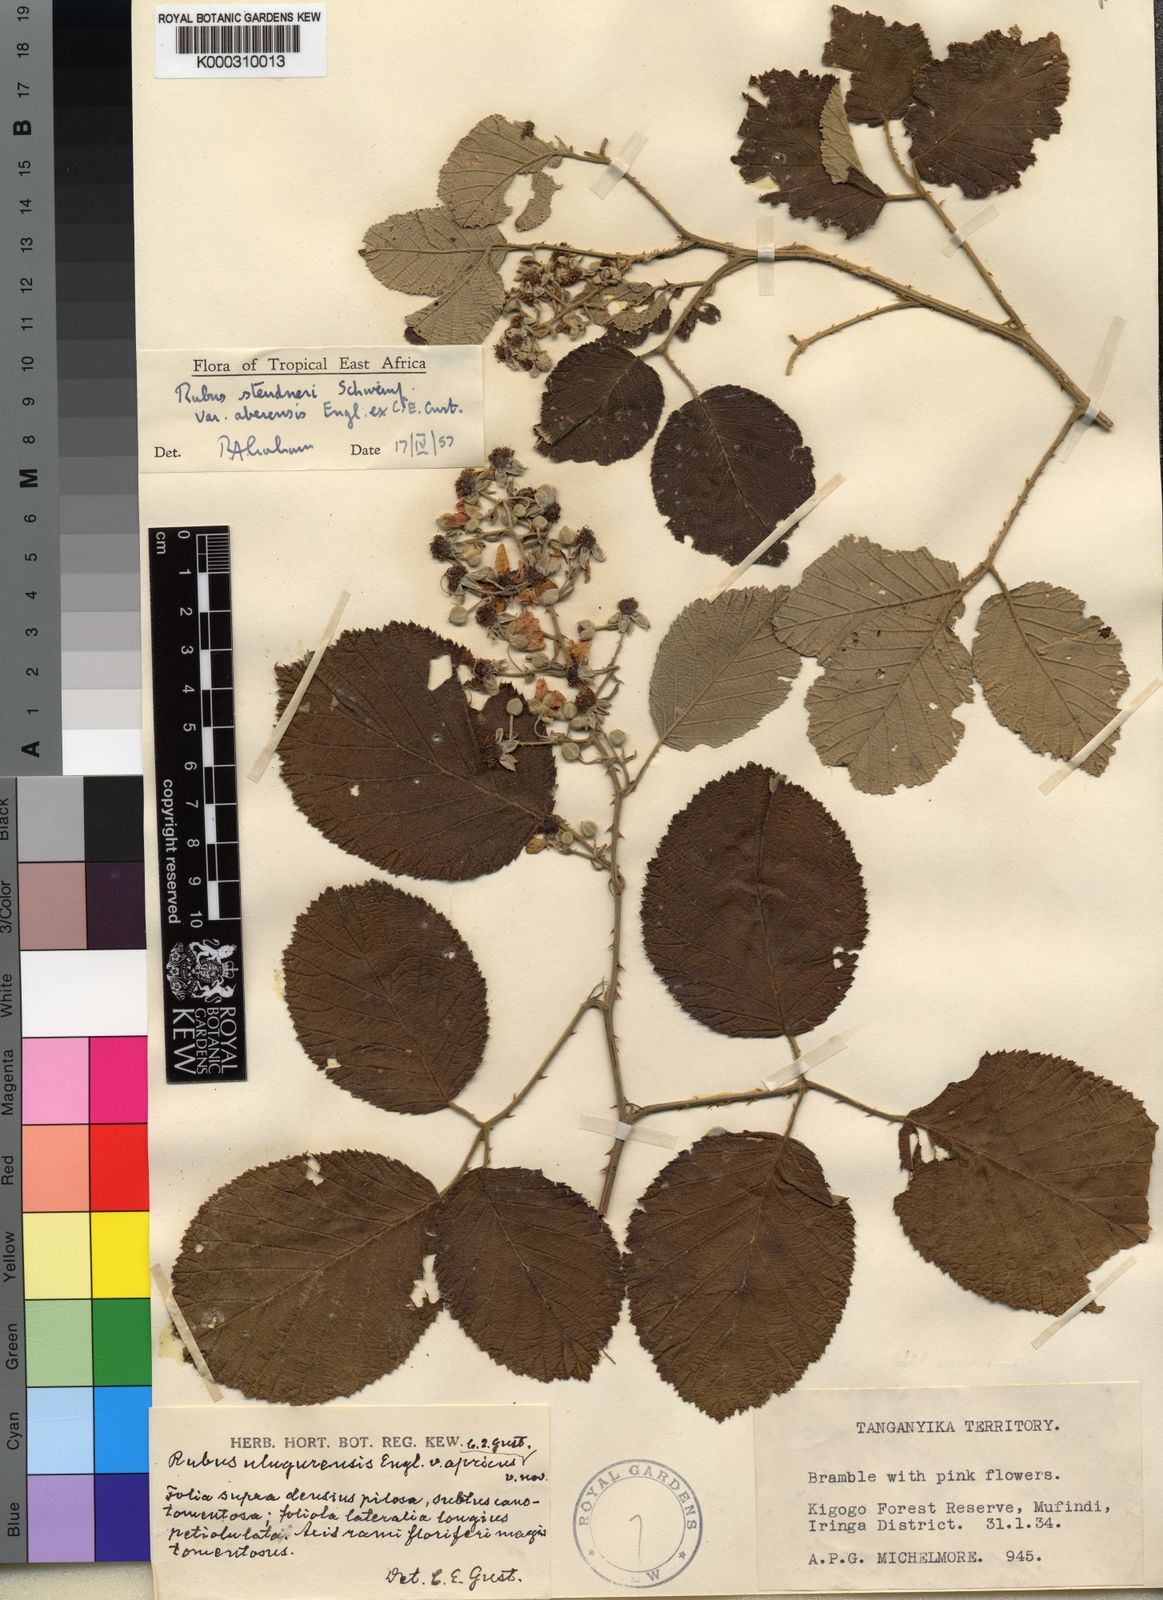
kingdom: Plantae
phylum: Tracheophyta
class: Magnoliopsida
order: Rosales
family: Rosaceae
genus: Rubus
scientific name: Rubus steudneri
